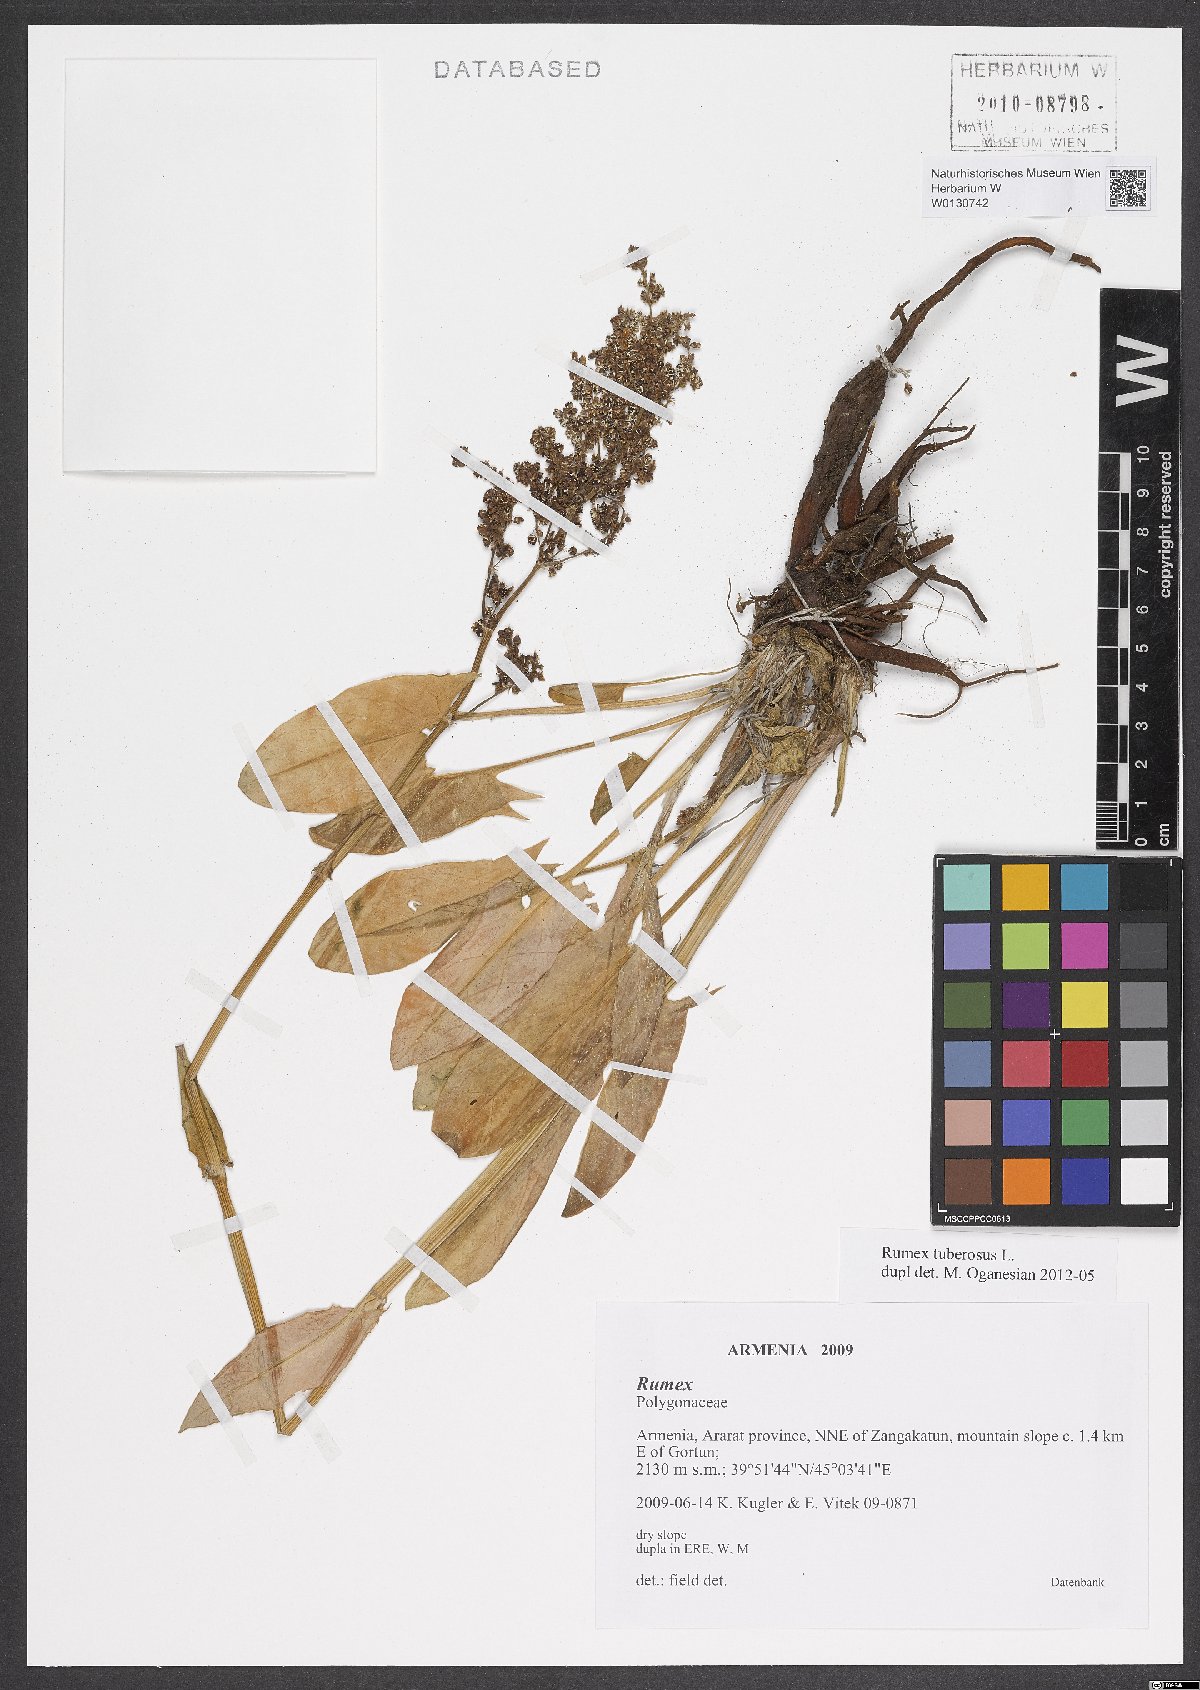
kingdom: Plantae
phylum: Tracheophyta
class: Magnoliopsida
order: Caryophyllales
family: Polygonaceae
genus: Rumex
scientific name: Rumex tuberosus
